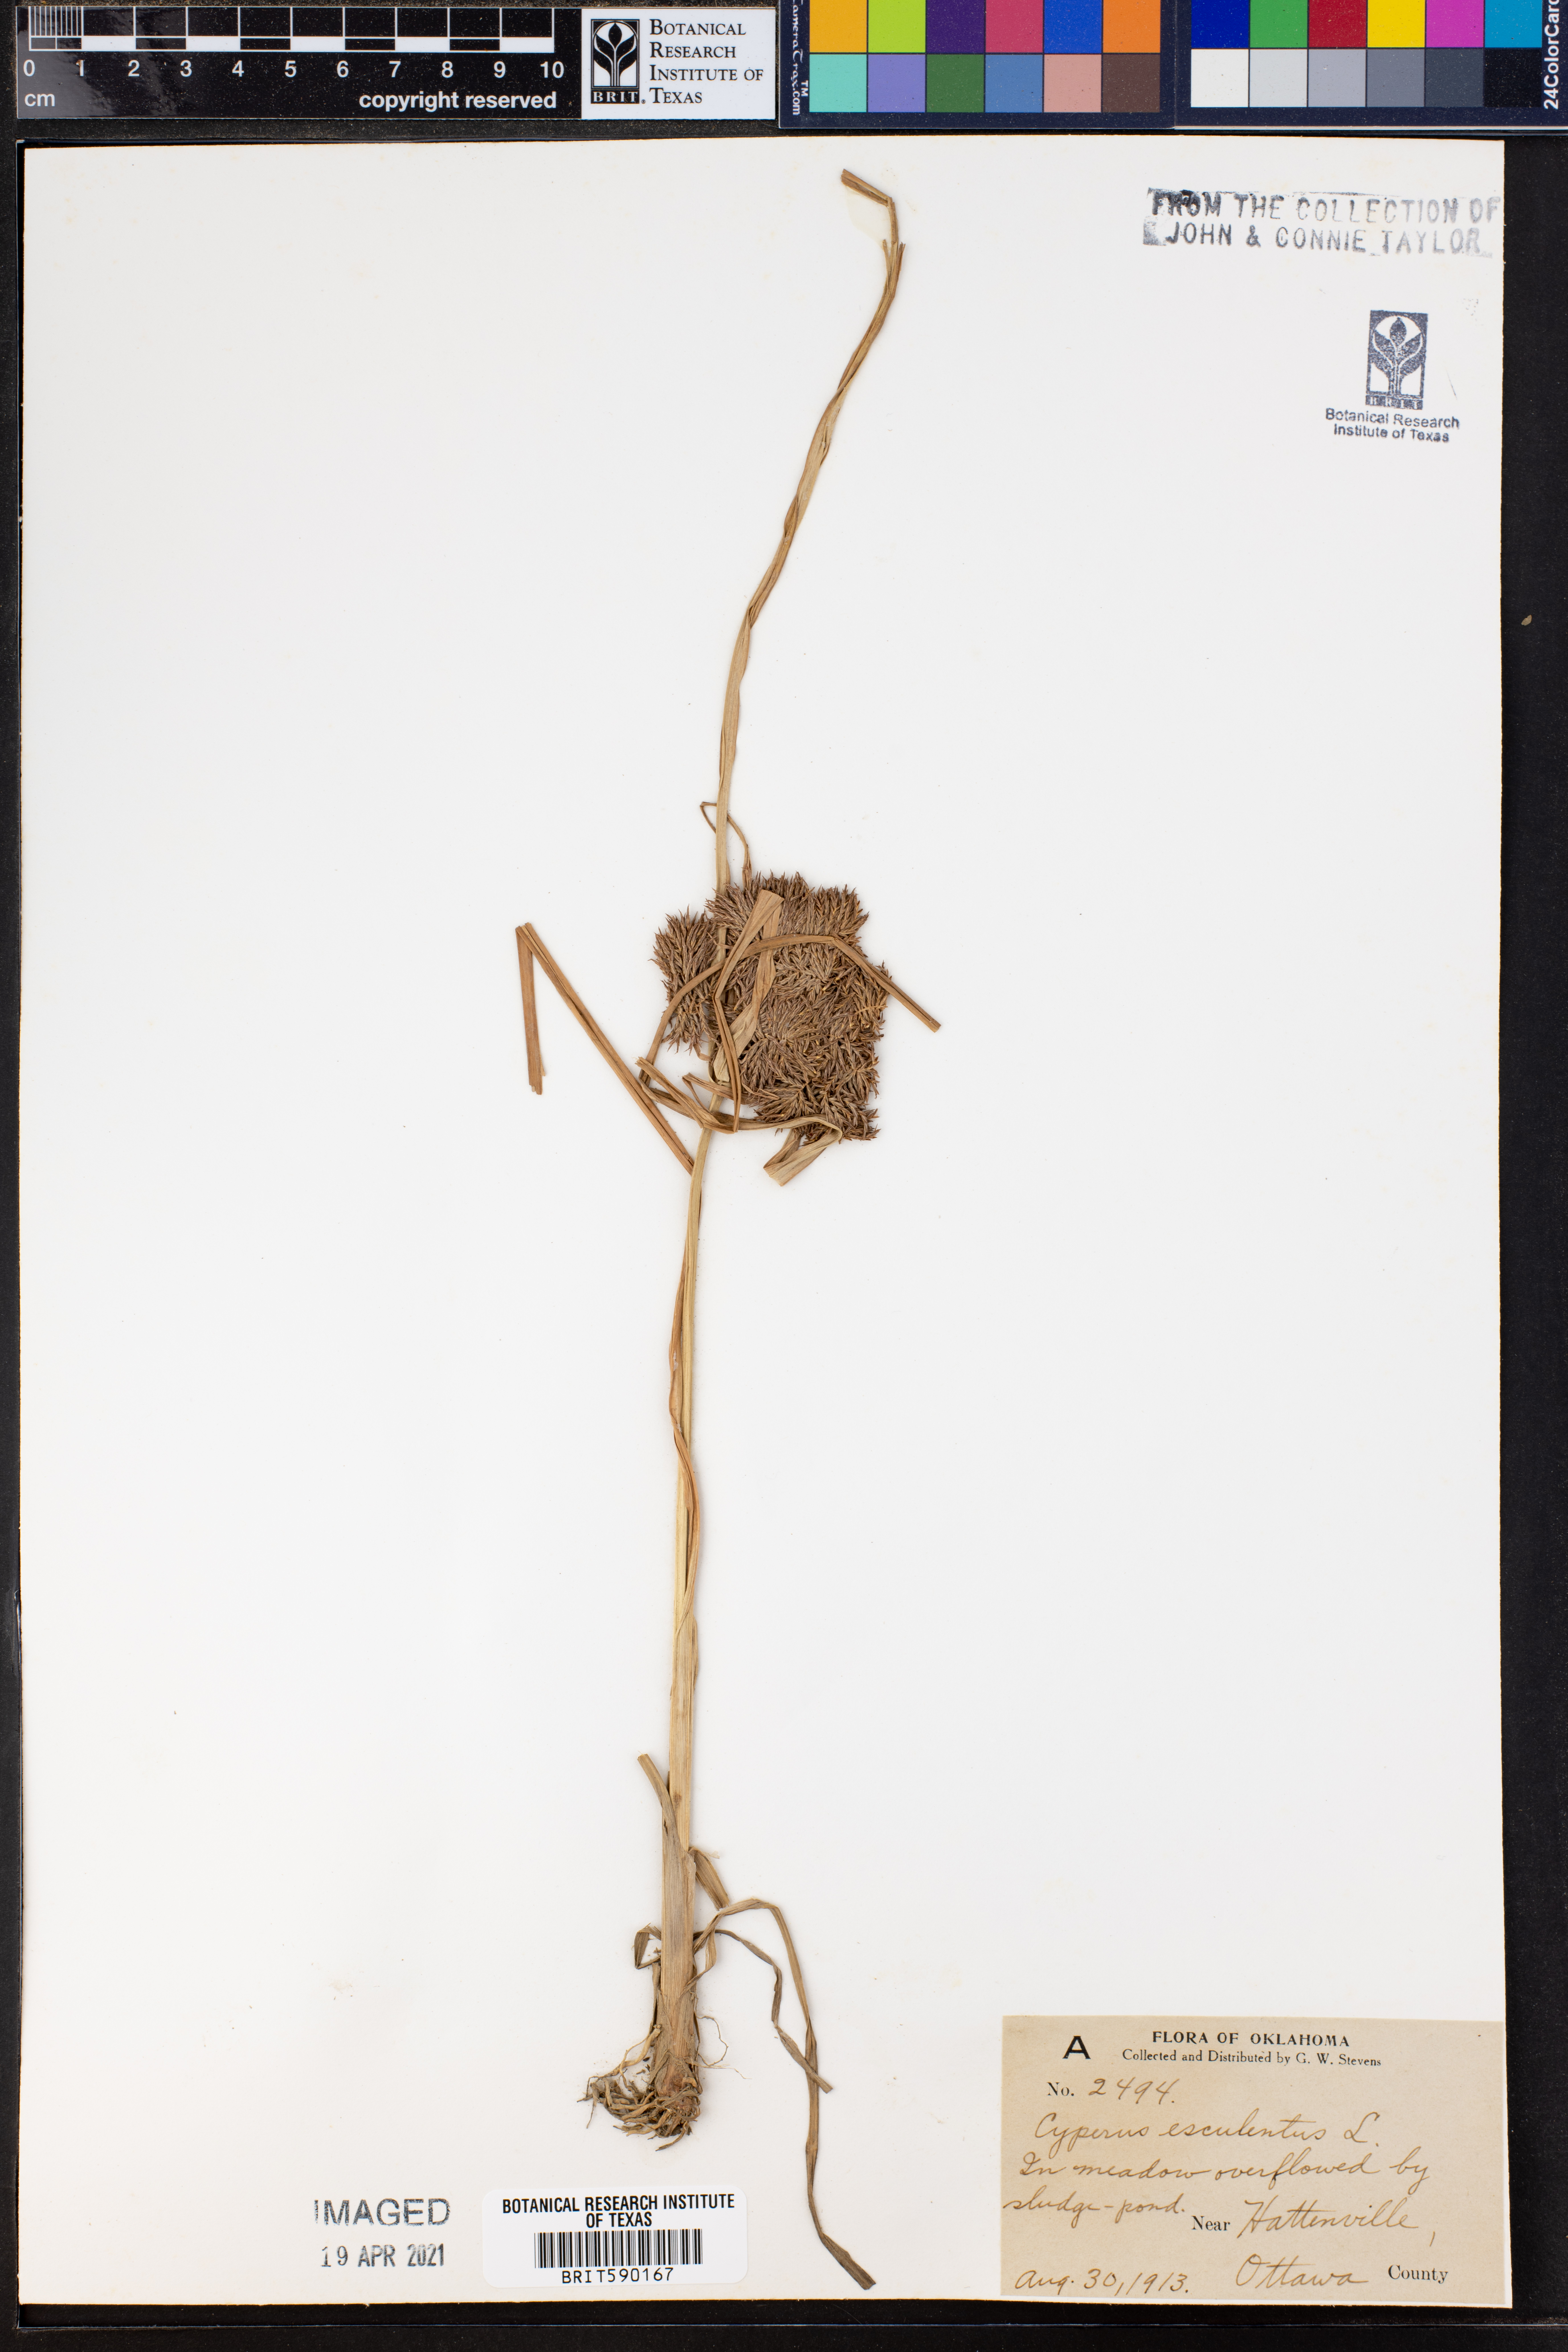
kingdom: Plantae
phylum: Tracheophyta
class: Liliopsida
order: Poales
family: Cyperaceae
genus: Cyperus
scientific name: Cyperus esculentus
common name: Yellow nutsedge
